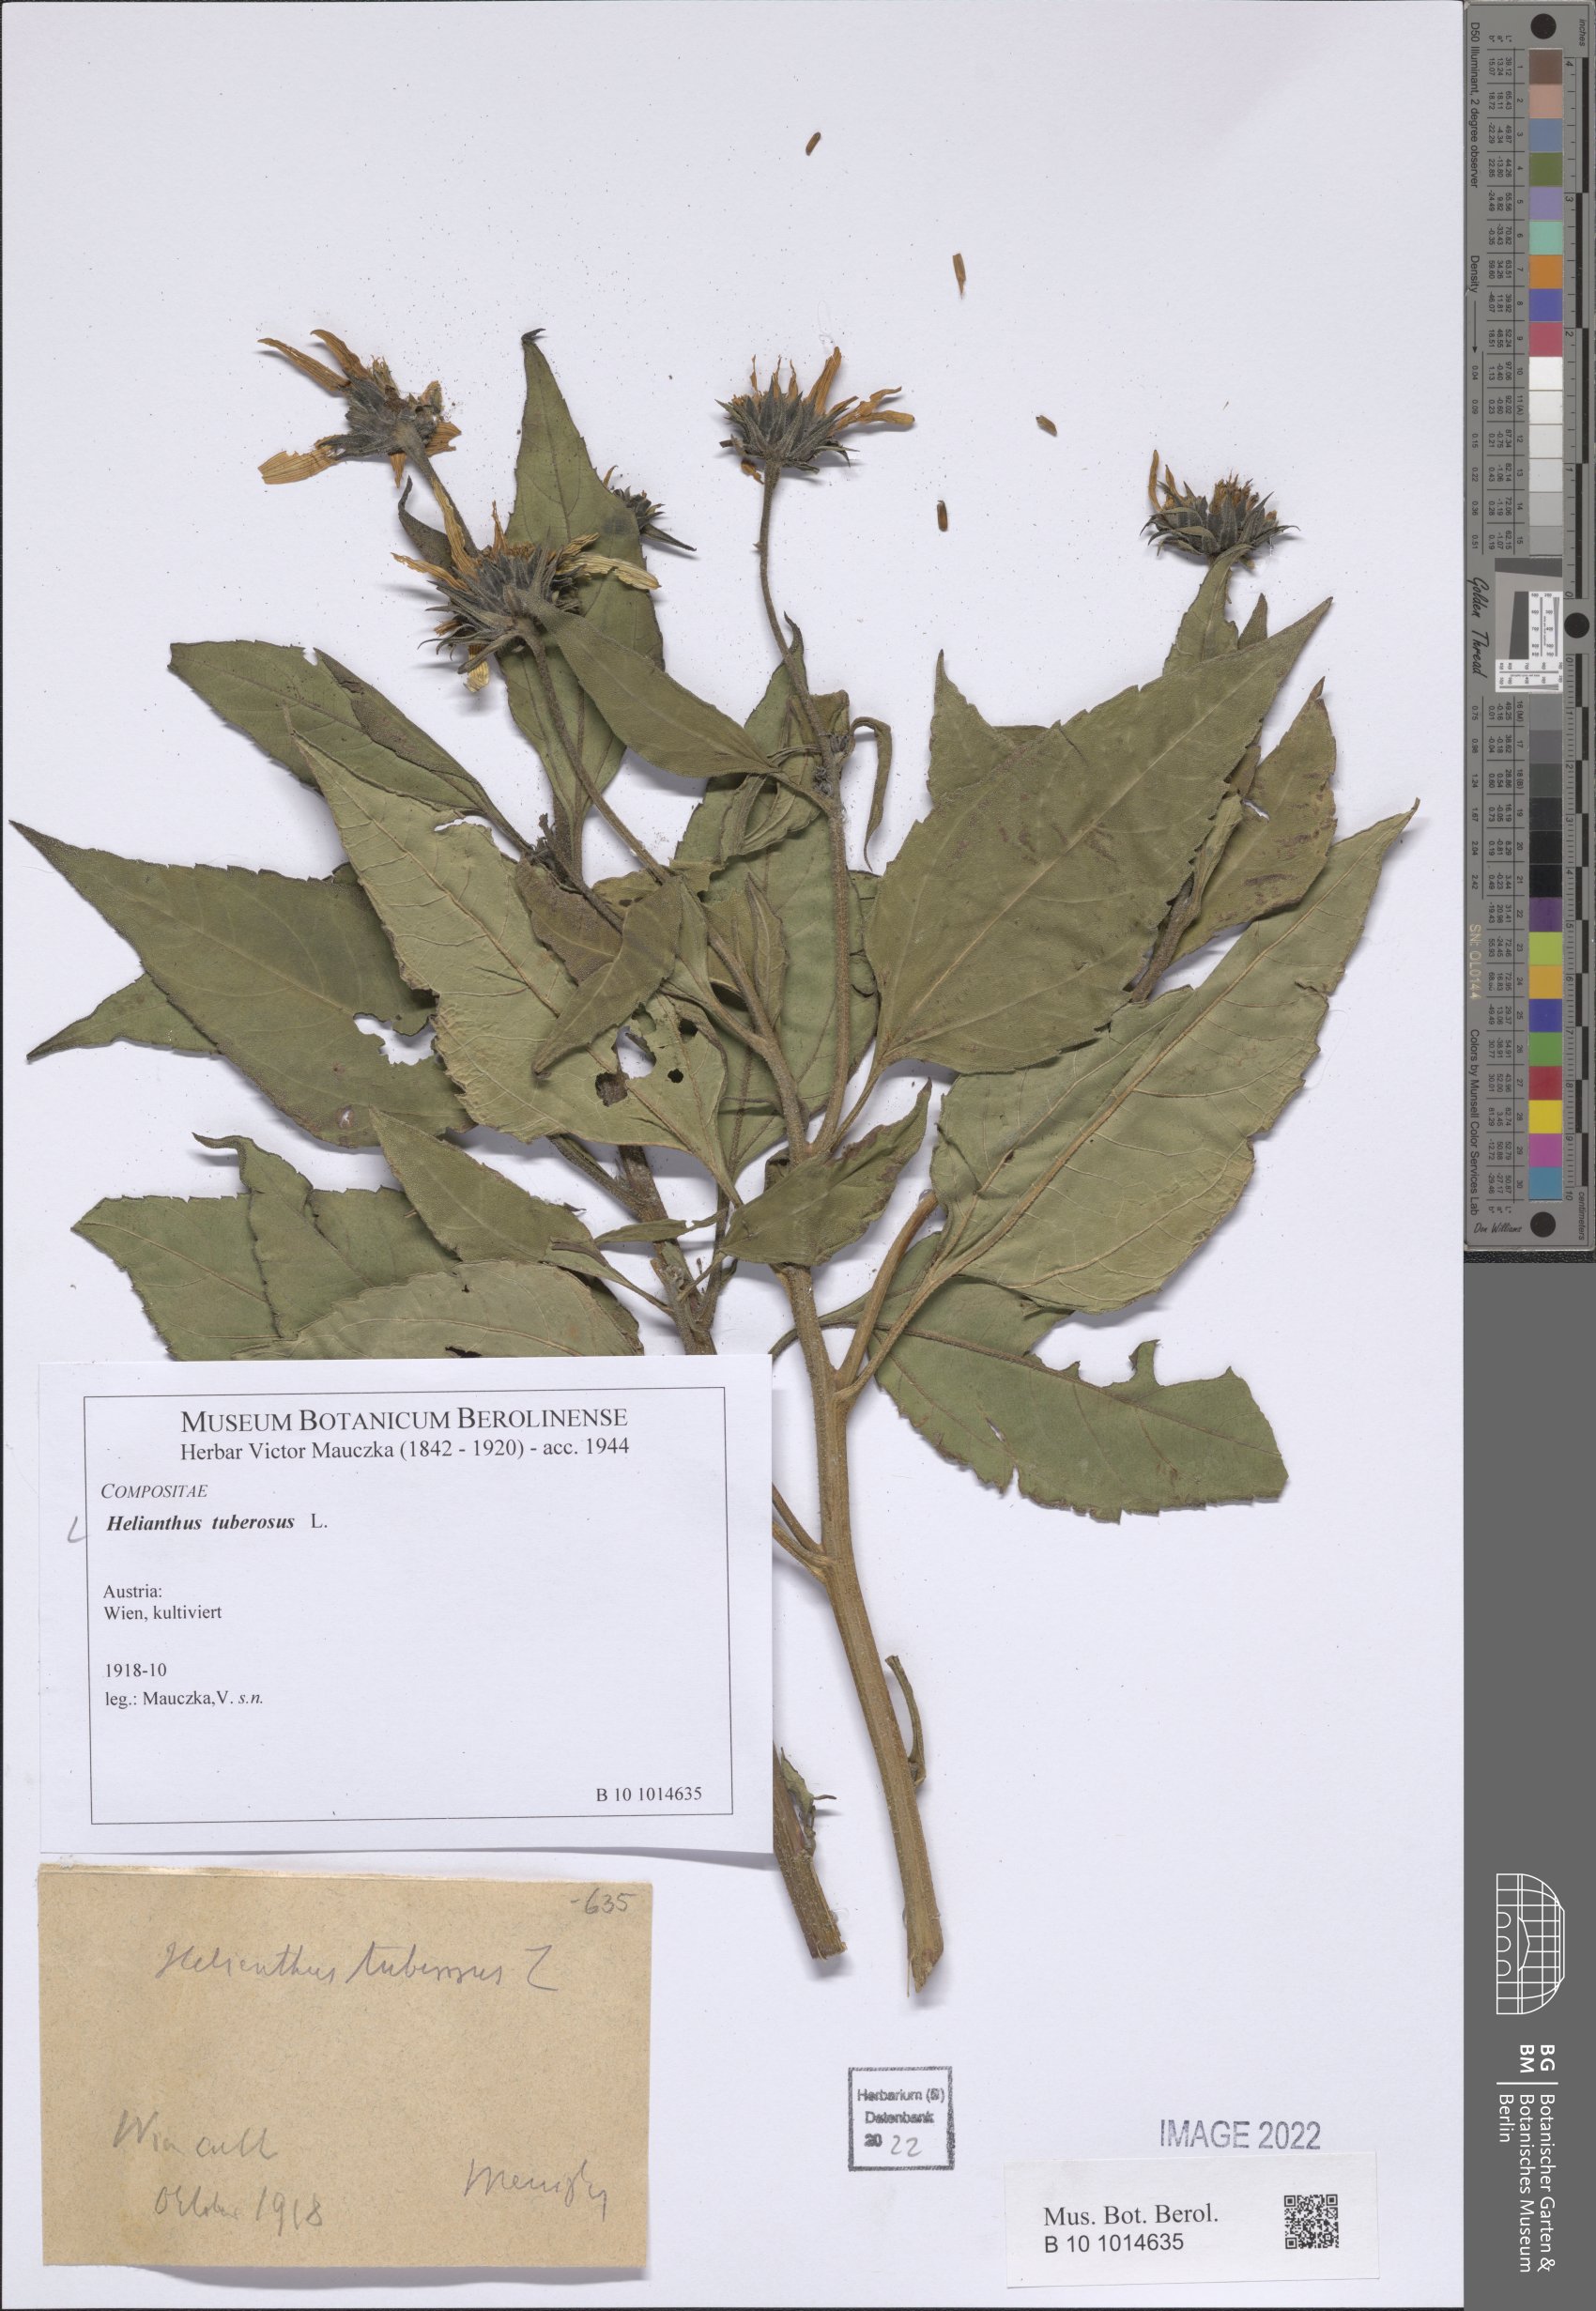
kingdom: Plantae
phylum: Tracheophyta
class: Magnoliopsida
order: Asterales
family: Asteraceae
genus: Helianthus
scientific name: Helianthus tuberosus
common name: Jerusalem artichoke
